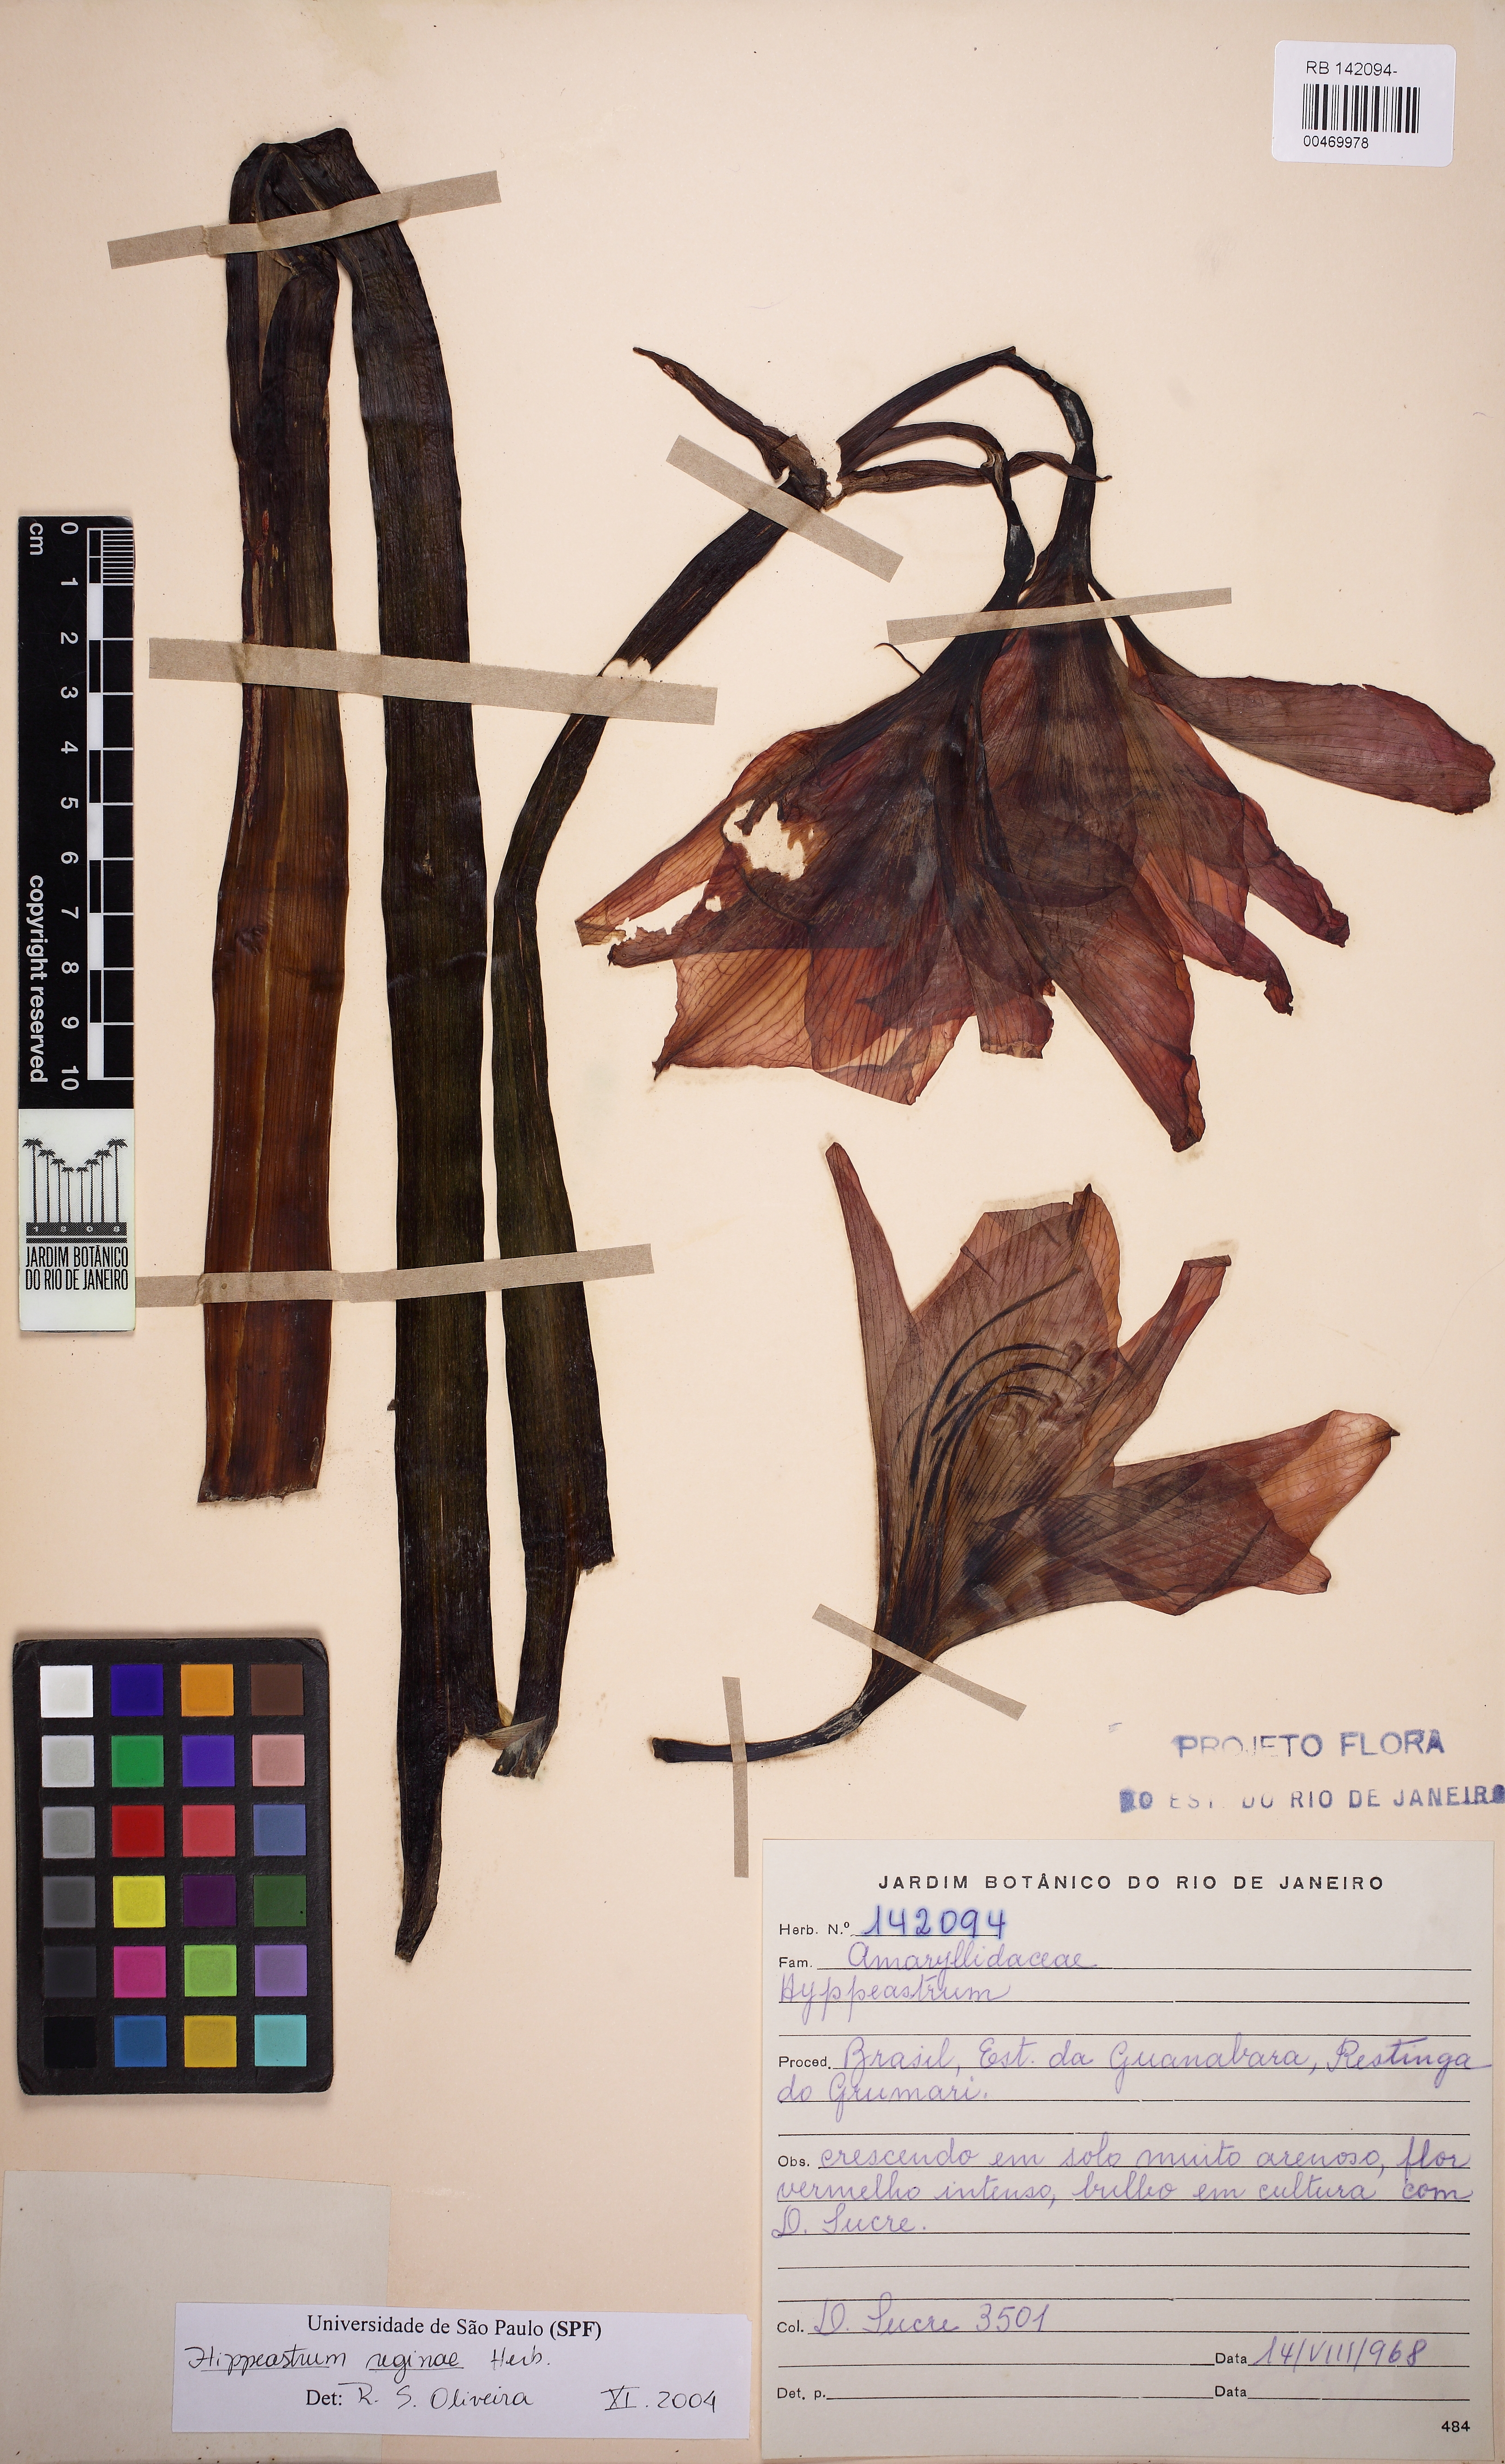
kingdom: Plantae
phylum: Tracheophyta
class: Liliopsida
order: Asparagales
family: Amaryllidaceae
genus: Hippeastrum
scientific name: Hippeastrum blossfeldiae
